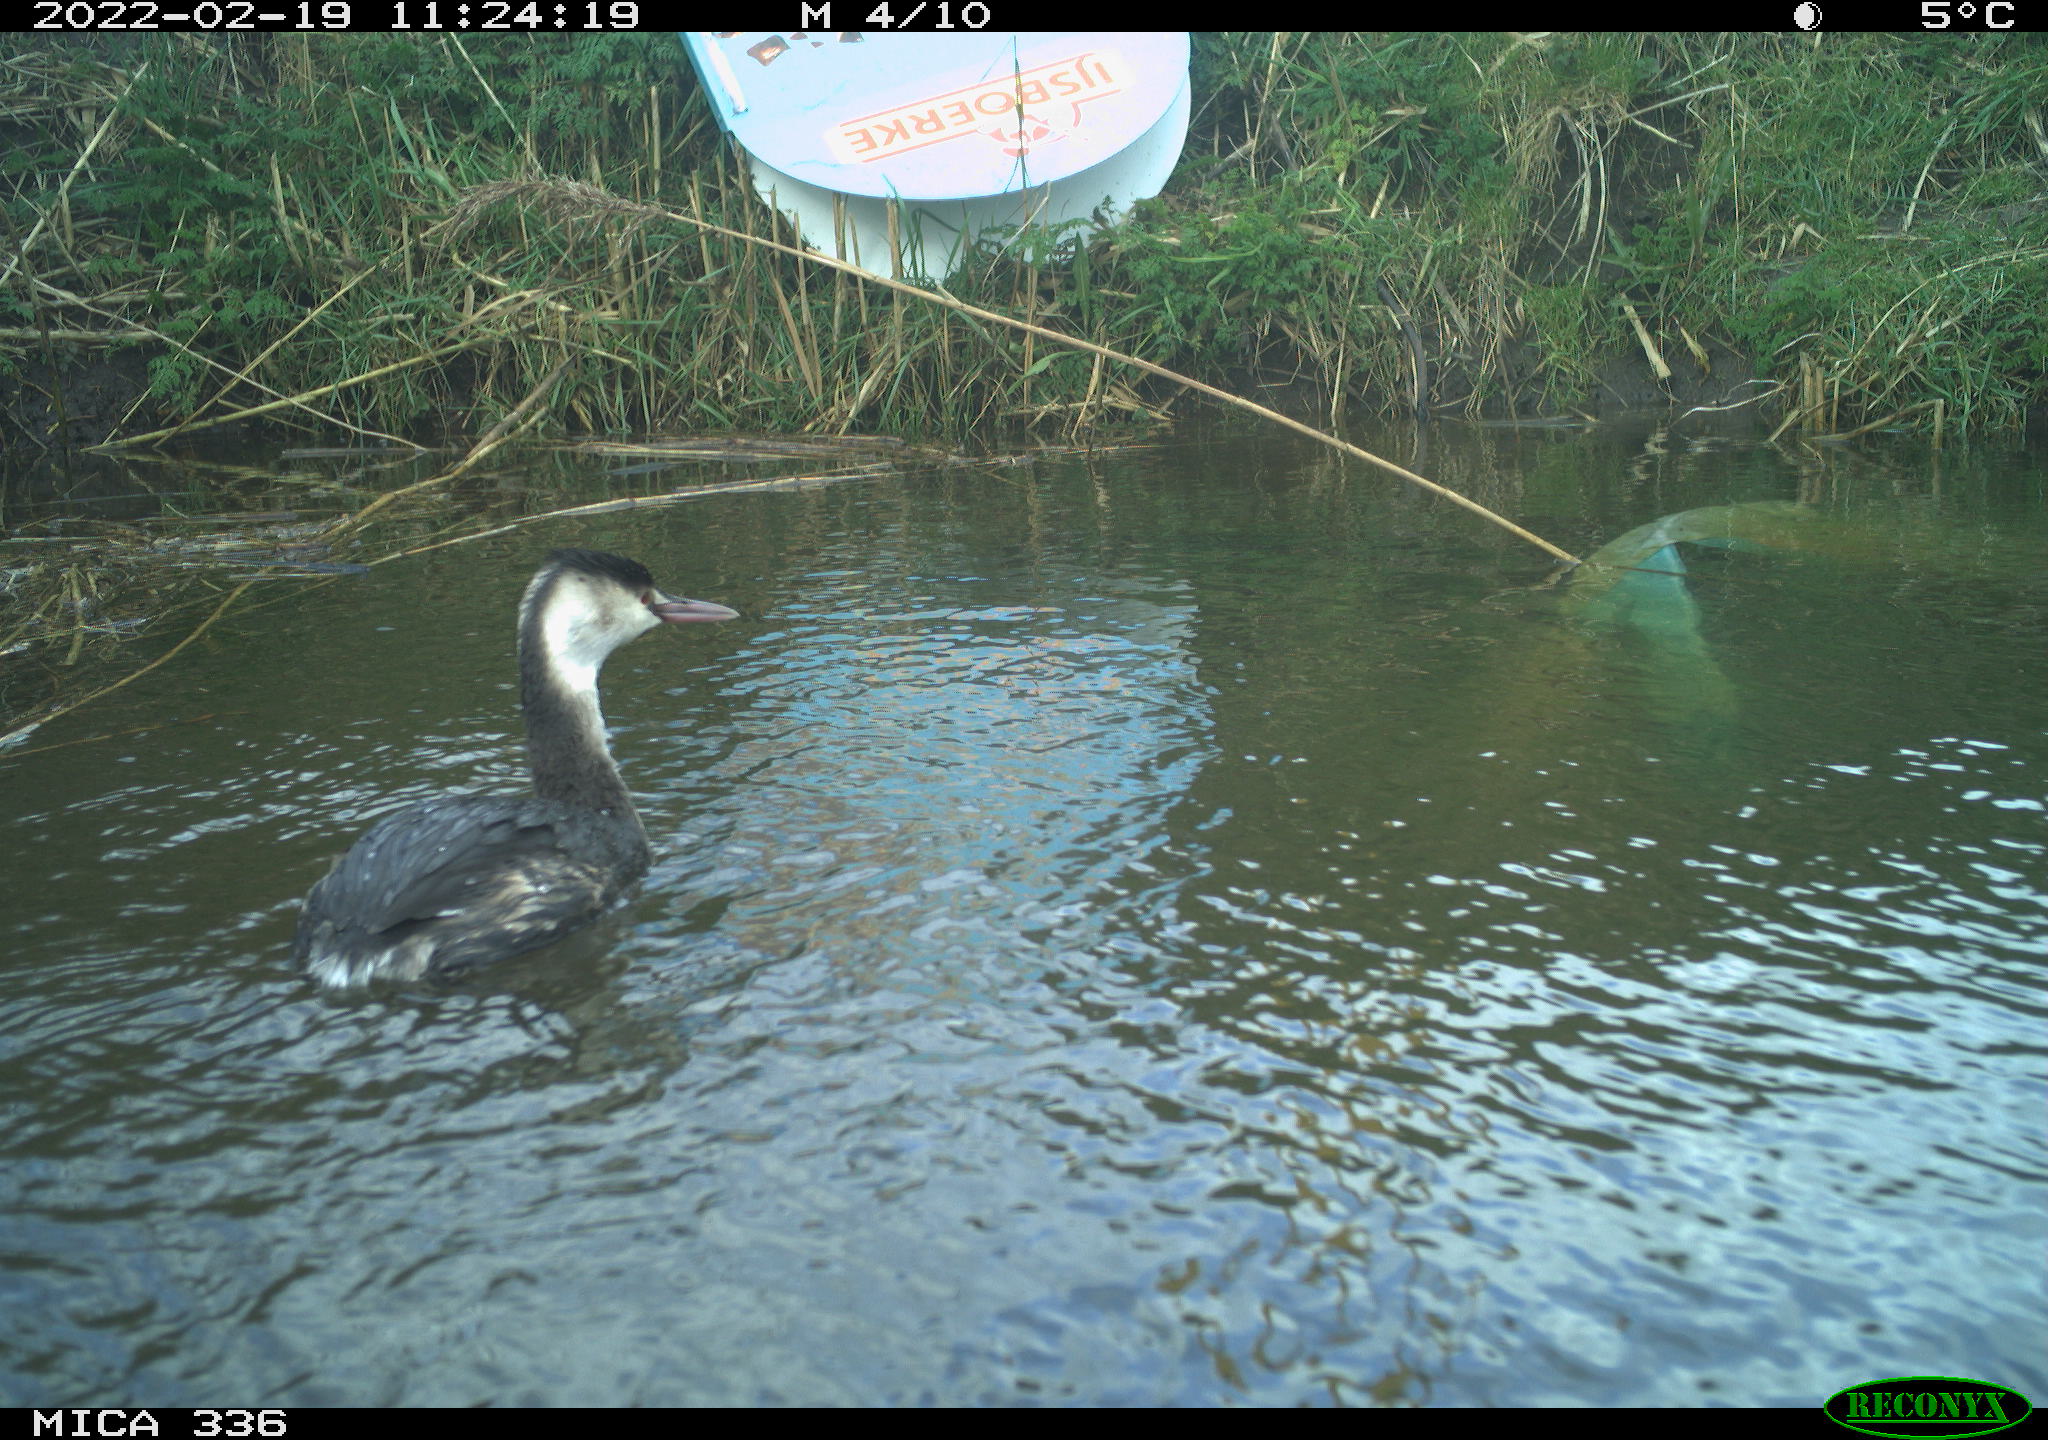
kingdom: Animalia
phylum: Chordata
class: Aves
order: Podicipediformes
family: Podicipedidae
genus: Podiceps
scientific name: Podiceps cristatus
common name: Great crested grebe
